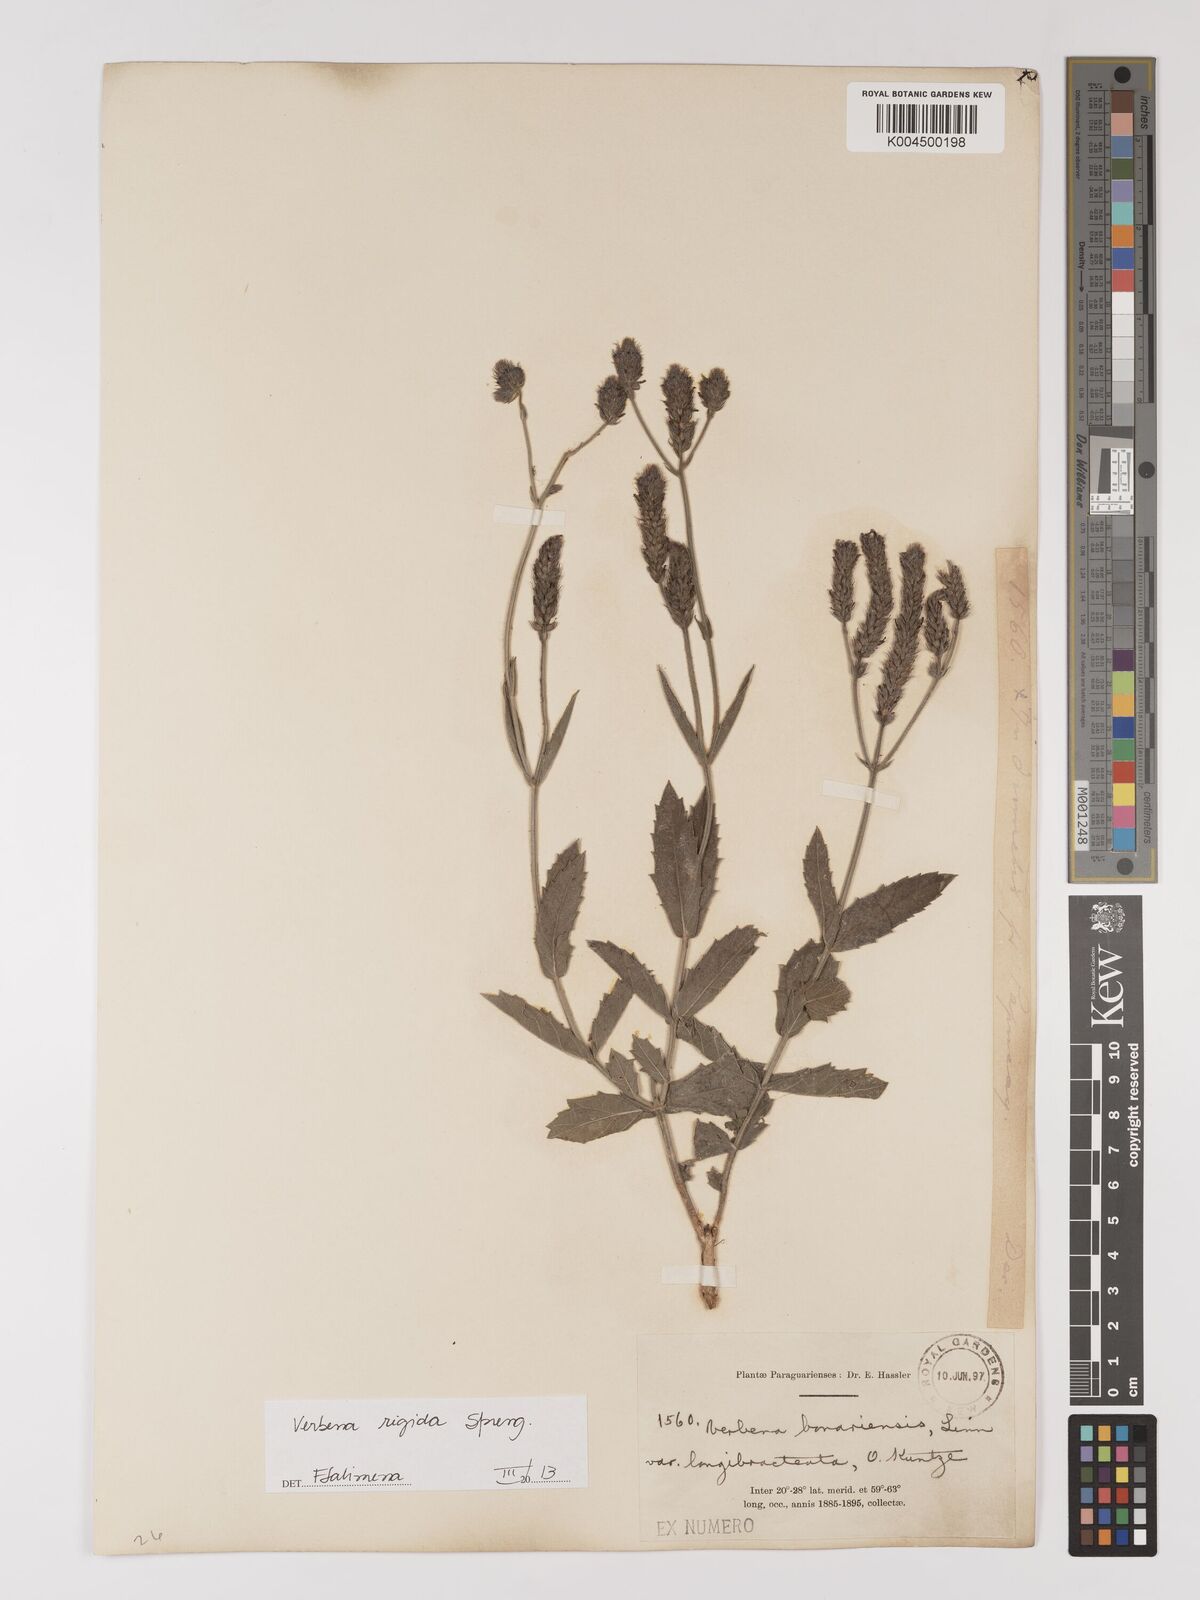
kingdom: Plantae
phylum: Tracheophyta
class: Magnoliopsida
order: Lamiales
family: Verbenaceae
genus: Verbena
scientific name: Verbena rigida
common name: Slender vervain
